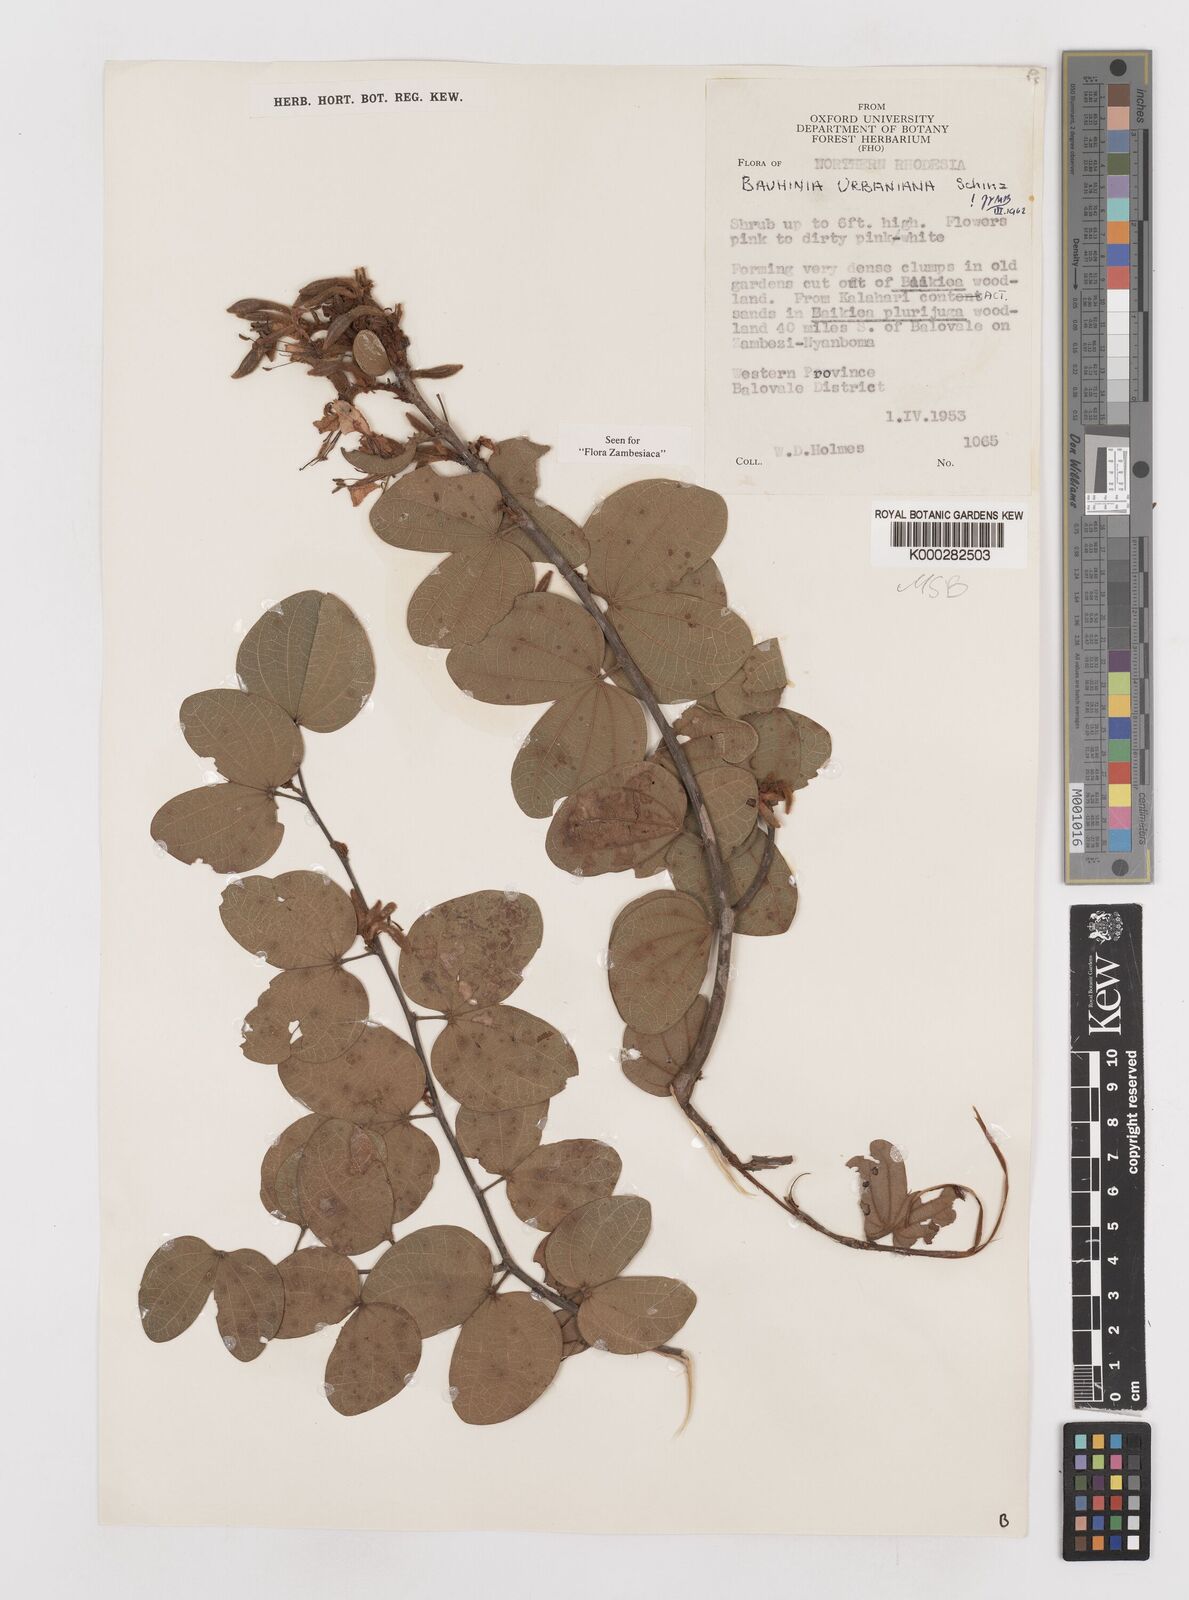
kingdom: Plantae
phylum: Tracheophyta
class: Magnoliopsida
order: Fabales
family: Fabaceae
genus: Bauhinia
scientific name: Bauhinia urbaniana
